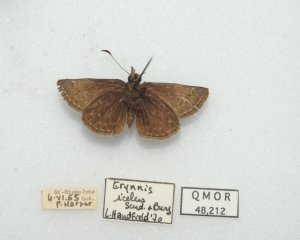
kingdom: Animalia
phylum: Arthropoda
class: Insecta
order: Lepidoptera
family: Hesperiidae
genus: Erynnis
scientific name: Erynnis icelus
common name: Dreamy Duskywing
